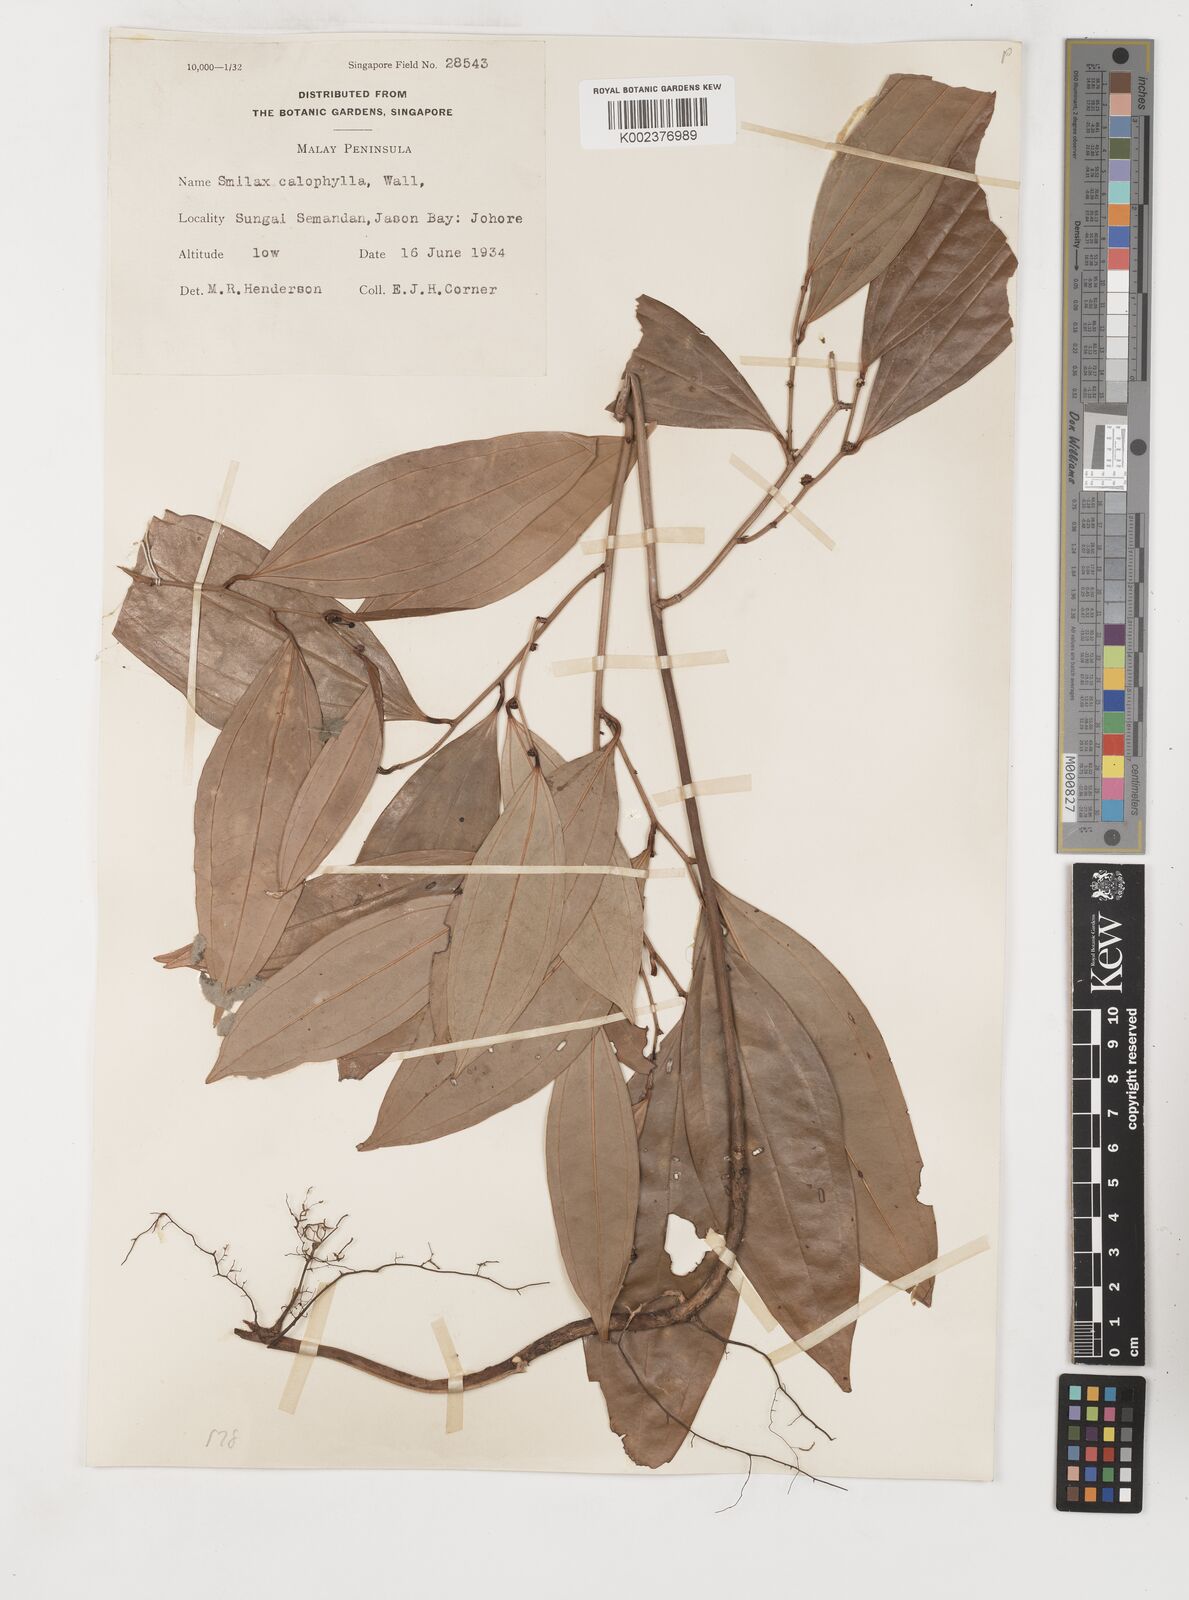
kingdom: Plantae
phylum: Tracheophyta
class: Liliopsida
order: Liliales
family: Smilacaceae
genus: Smilax
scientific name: Smilax calophylla
